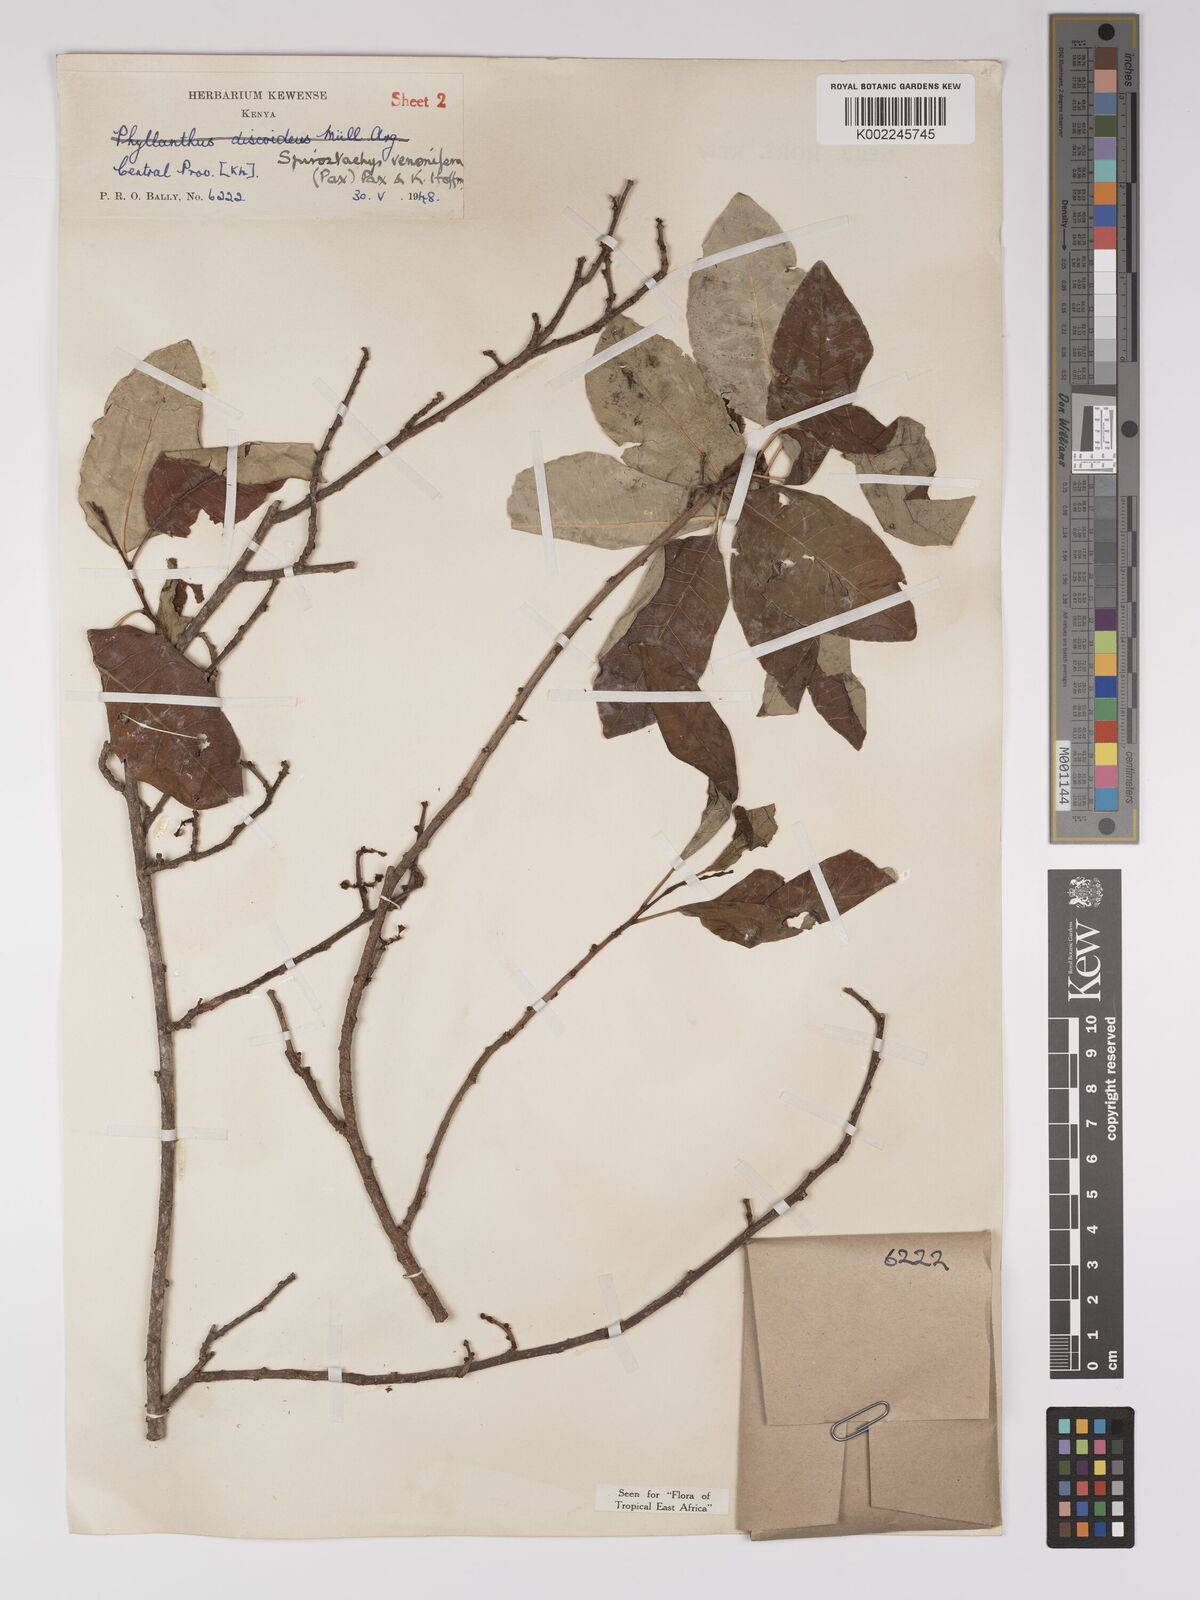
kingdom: Plantae
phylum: Tracheophyta
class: Magnoliopsida
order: Malpighiales
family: Euphorbiaceae
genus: Spirostachys
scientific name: Spirostachys venenifera
